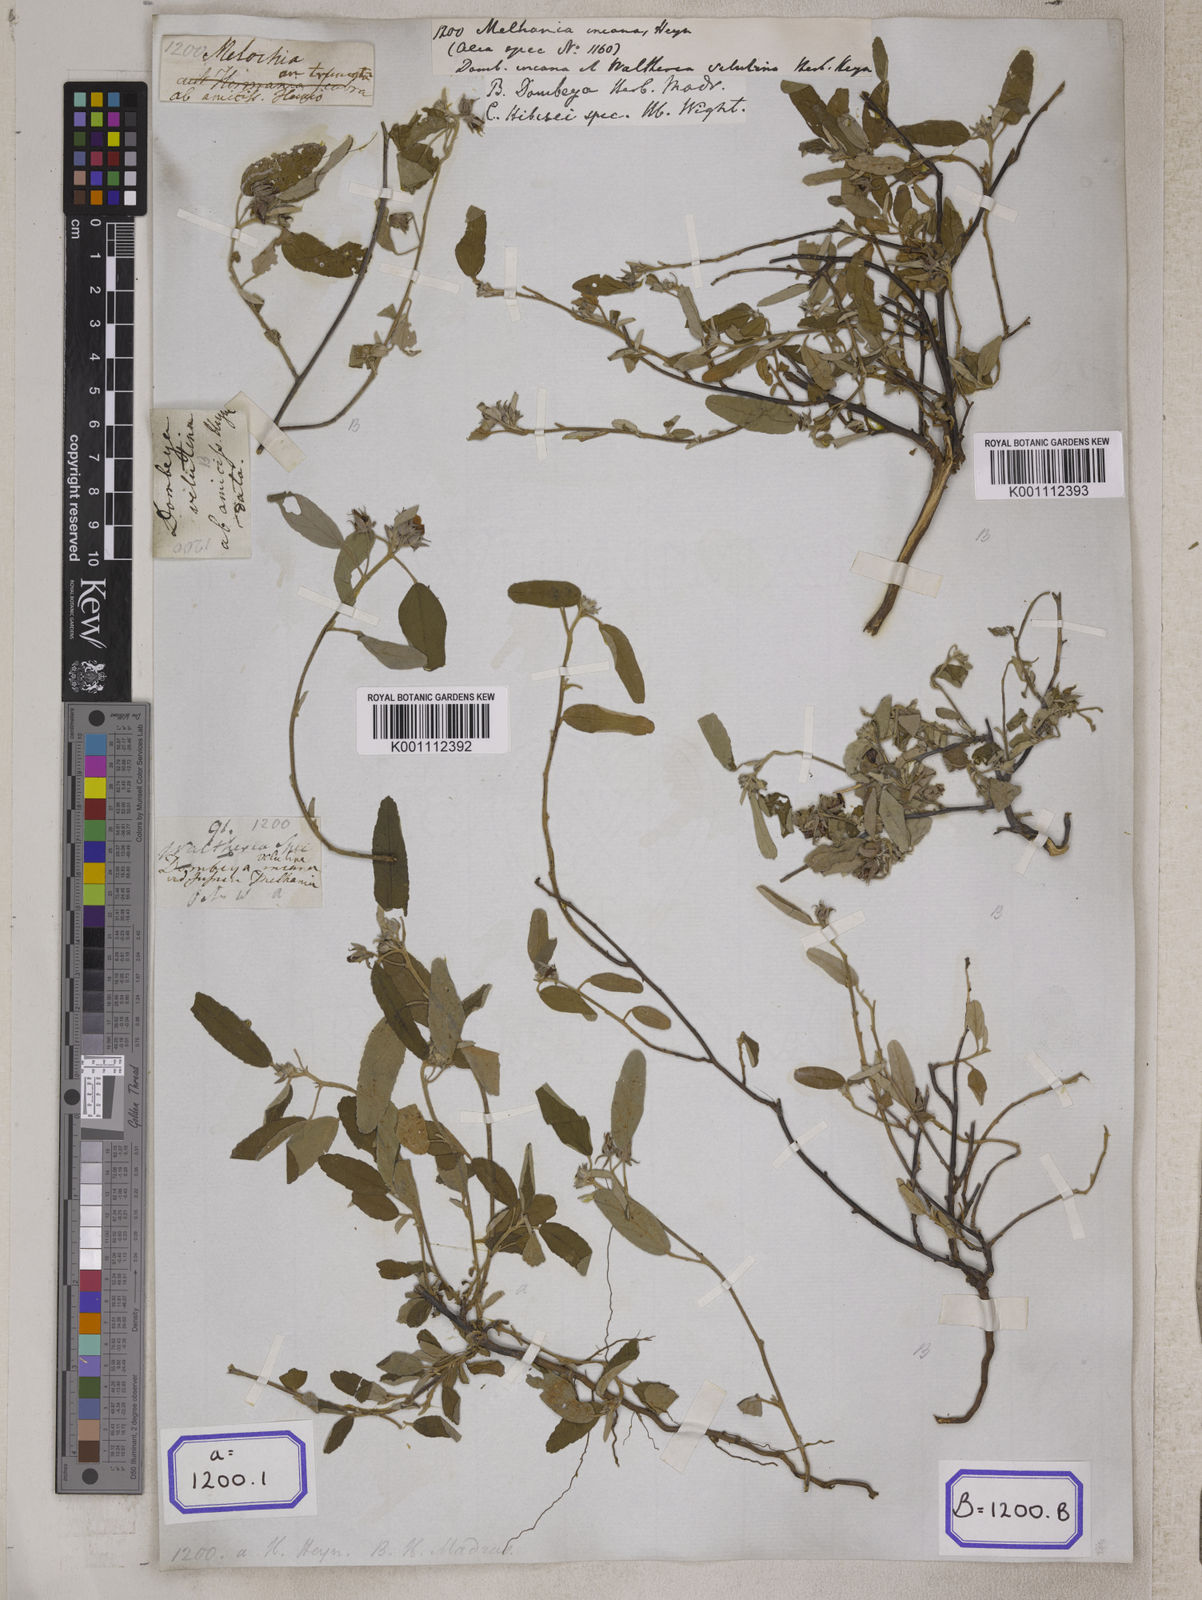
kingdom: Plantae
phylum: Tracheophyta
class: Magnoliopsida
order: Malvales
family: Malvaceae
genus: Melhania
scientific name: Melhania
